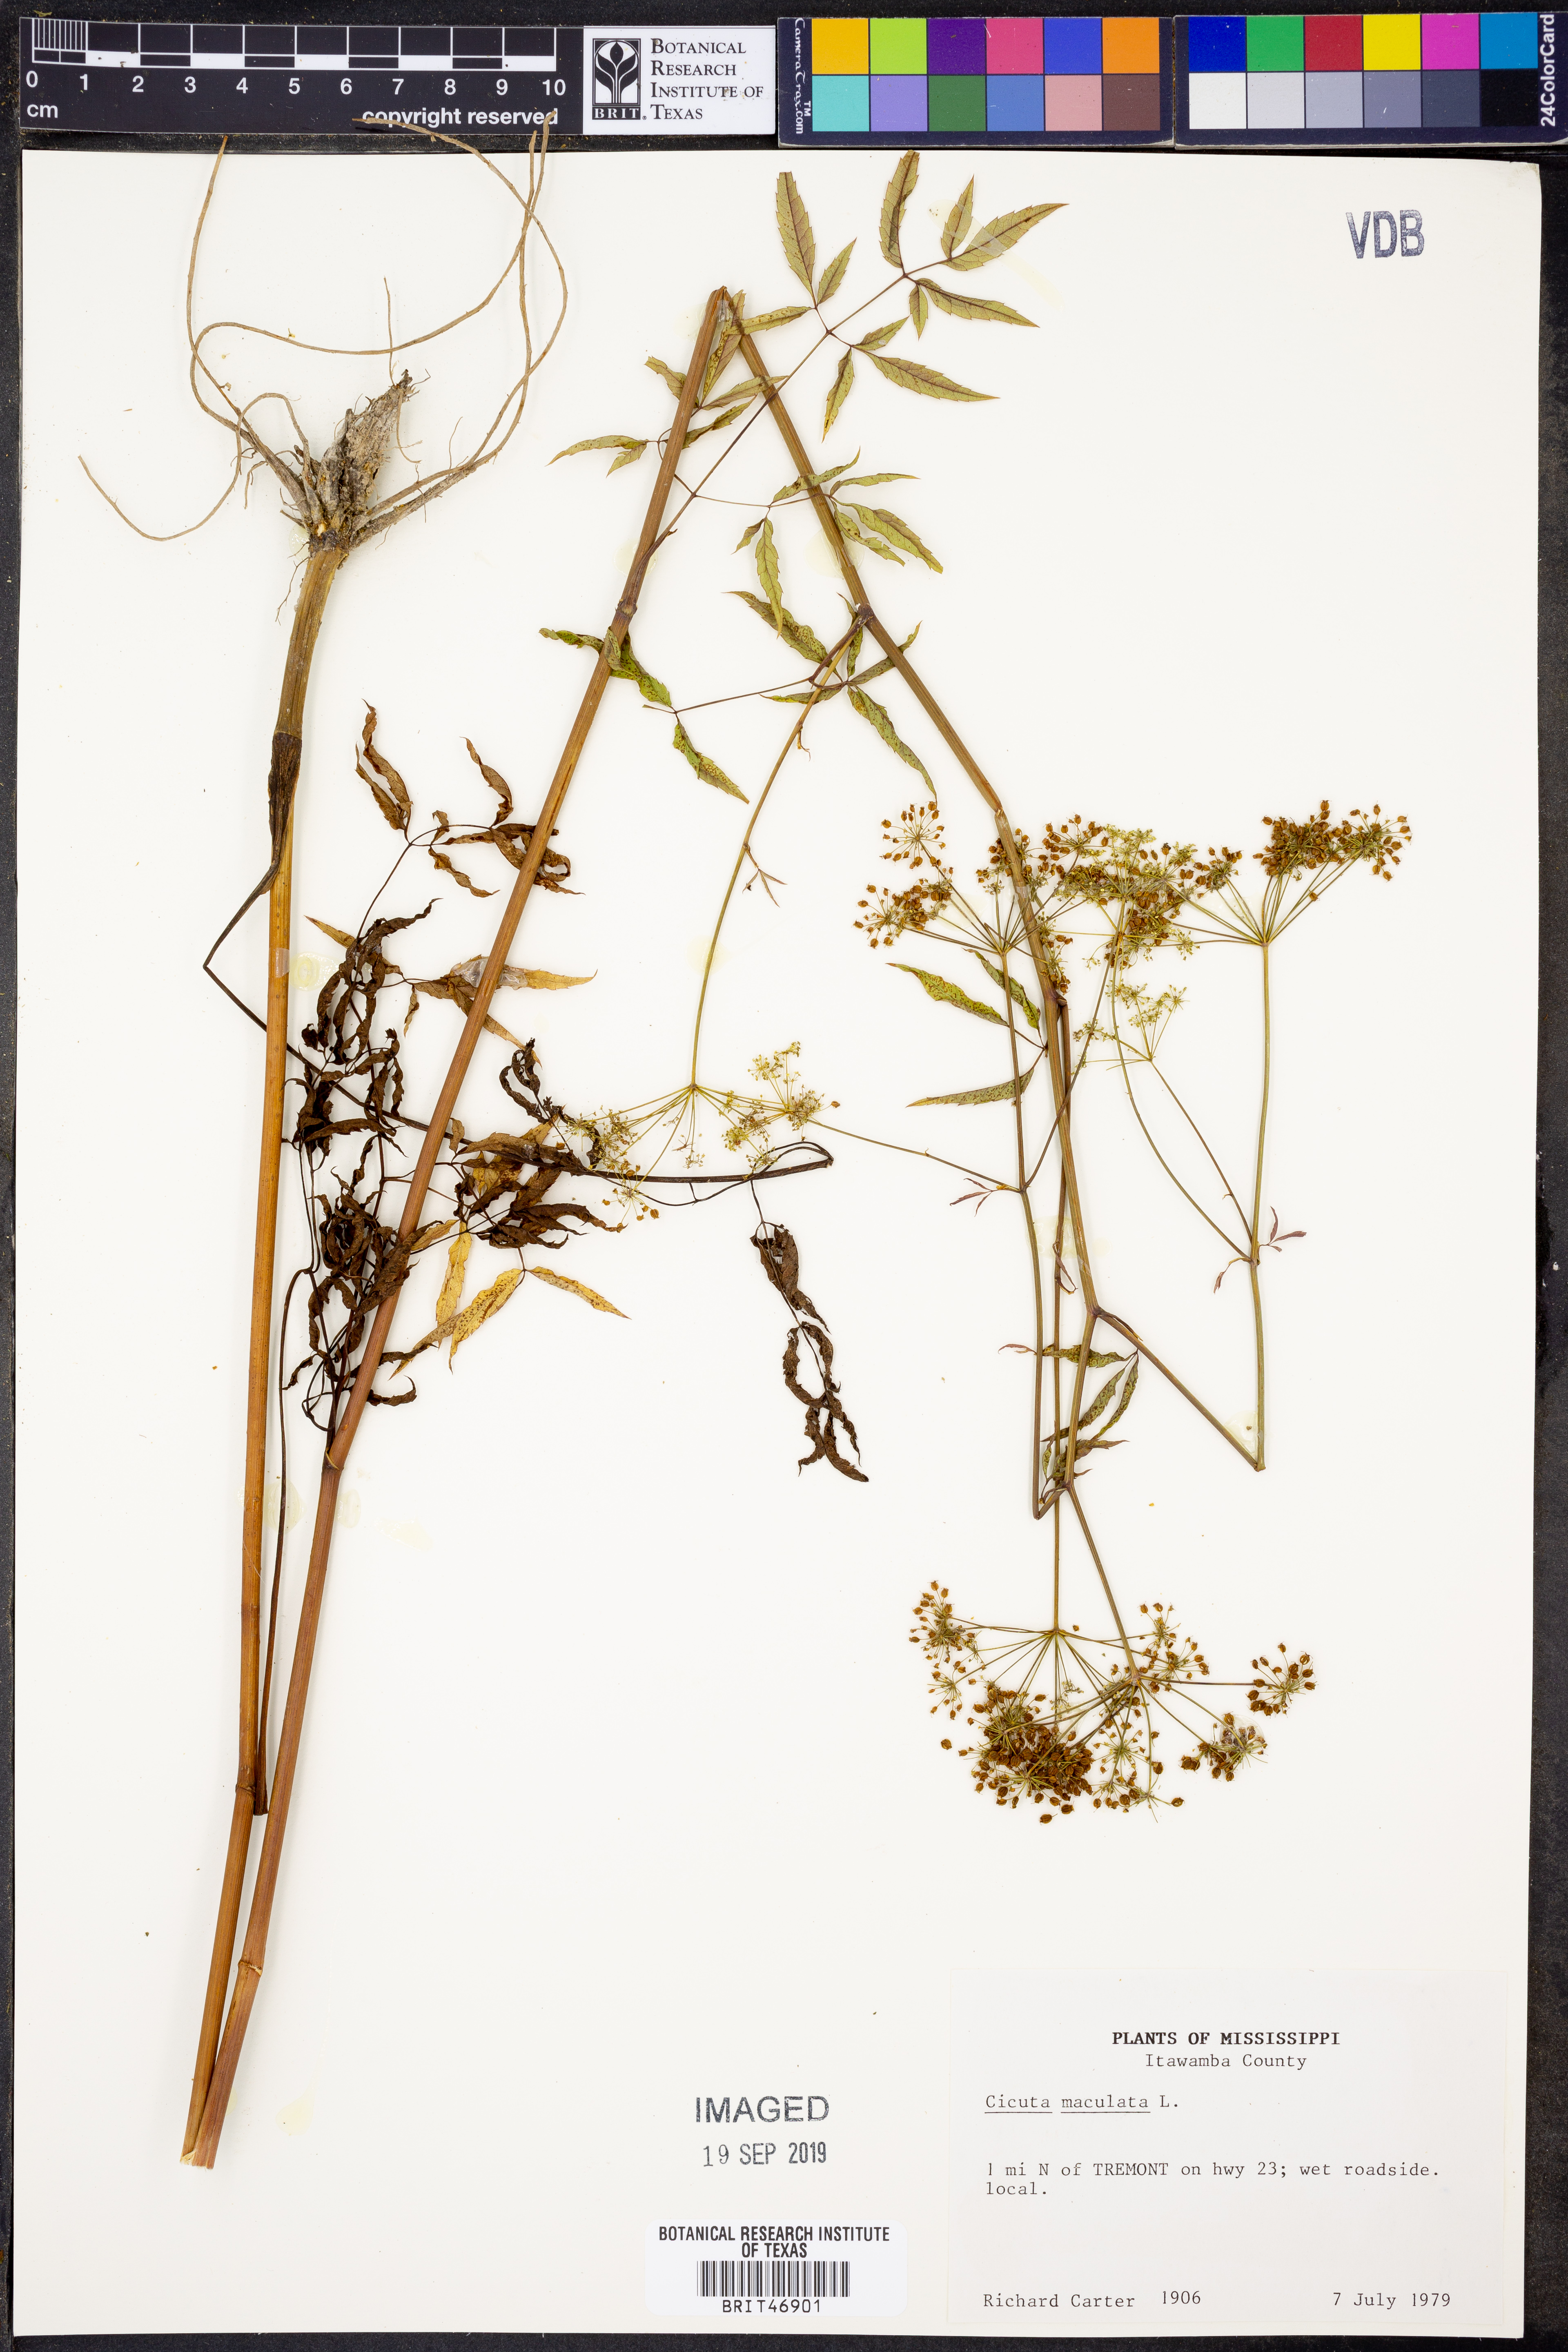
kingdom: Plantae
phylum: Tracheophyta
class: Magnoliopsida
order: Apiales
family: Apiaceae
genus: Cicuta
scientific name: Cicuta maculata
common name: Spotted cowbane
